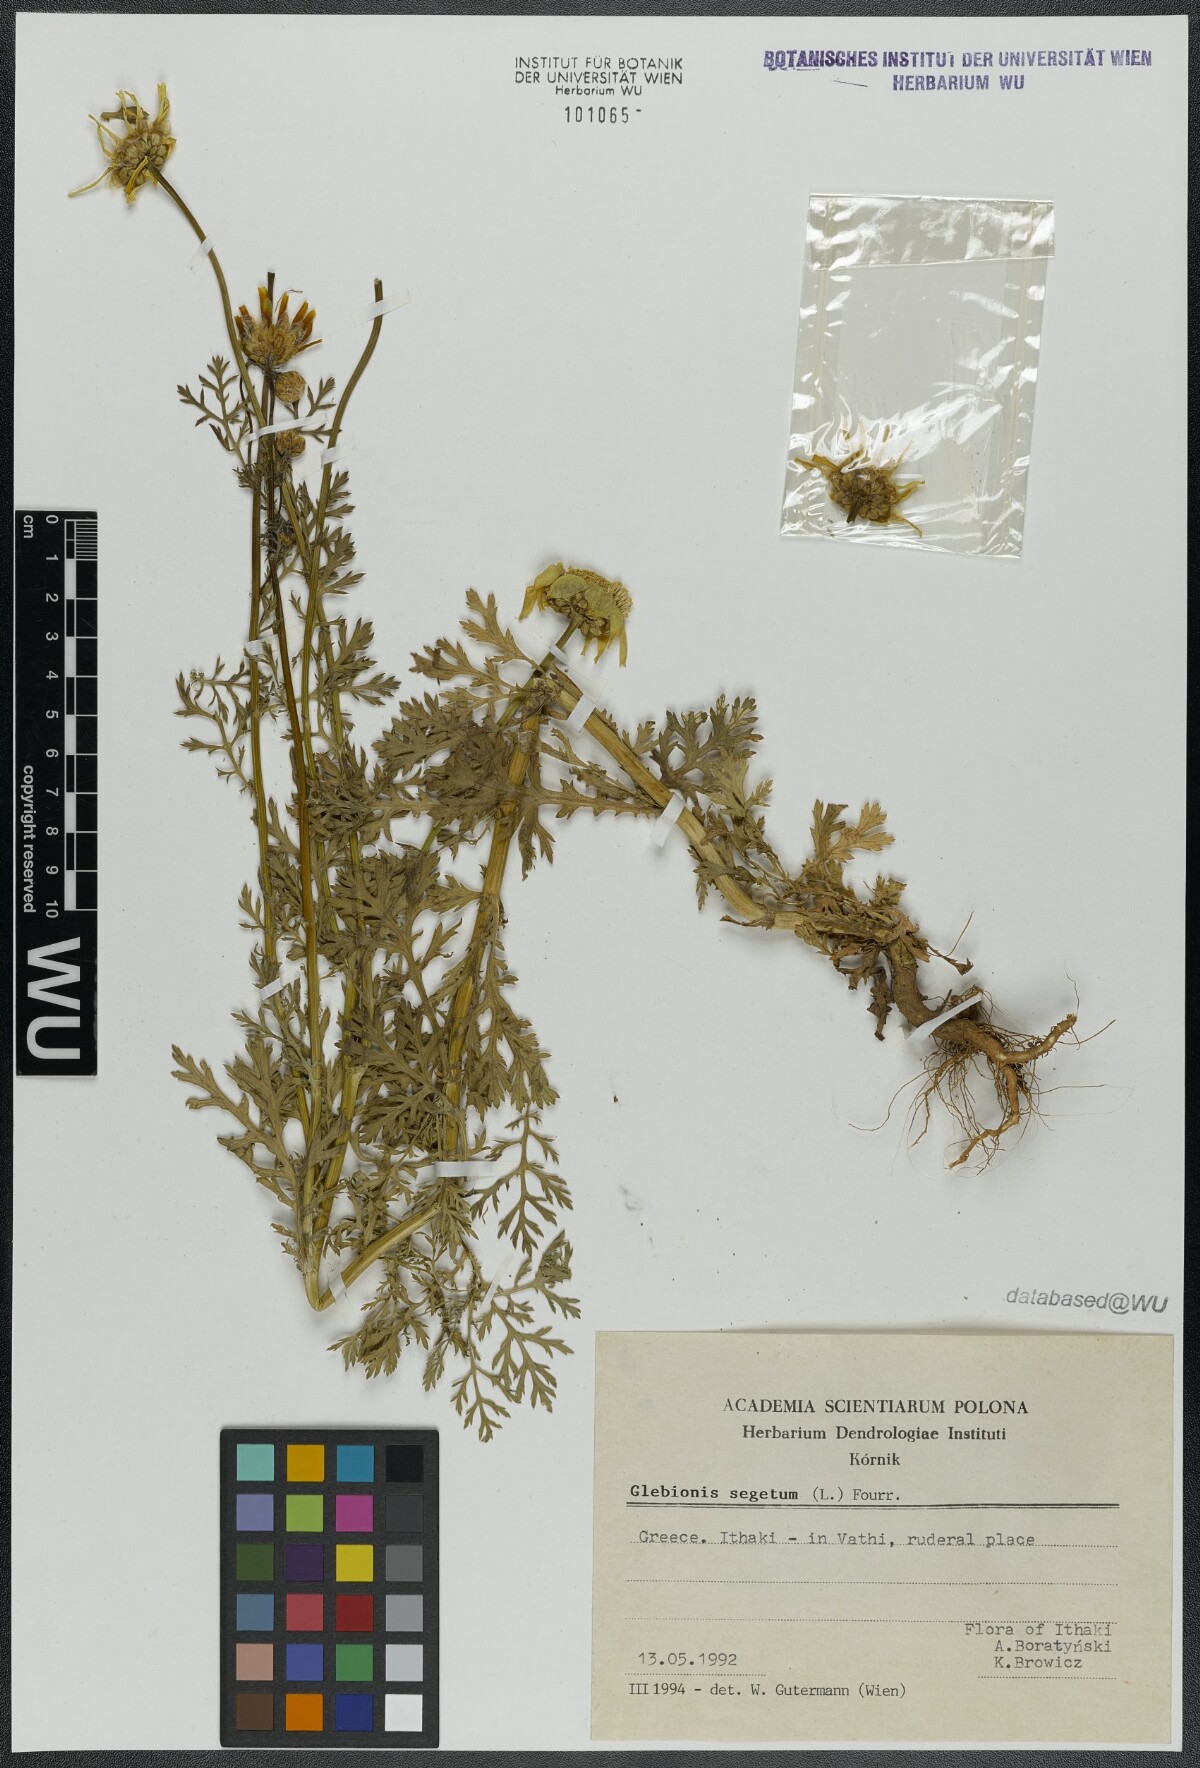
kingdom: Plantae
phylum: Tracheophyta
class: Magnoliopsida
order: Asterales
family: Asteraceae
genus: Glebionis
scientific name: Glebionis segetum
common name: Corndaisy
